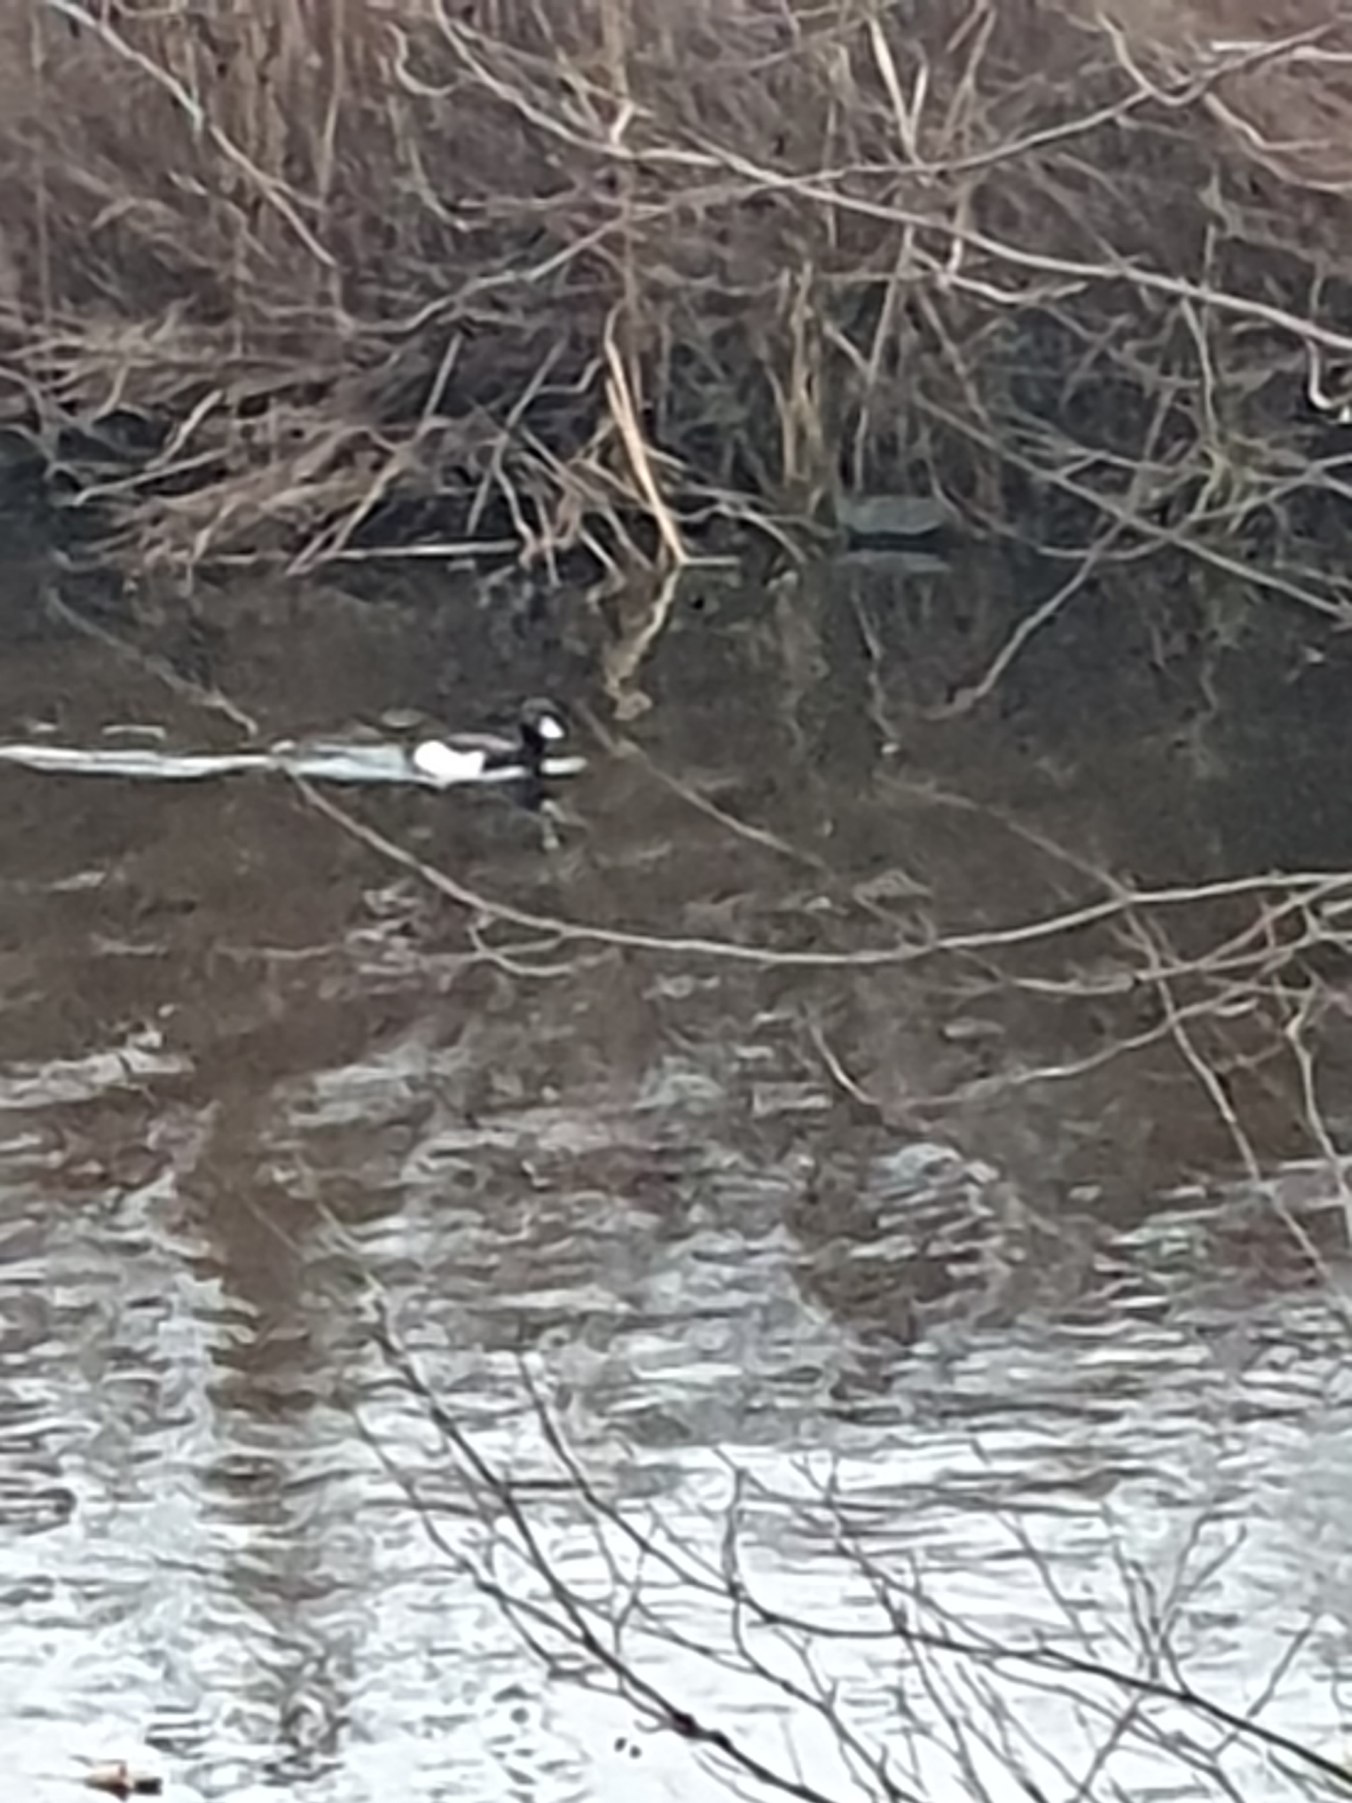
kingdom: Animalia
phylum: Chordata
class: Aves
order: Anseriformes
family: Anatidae
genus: Aythya
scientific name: Aythya fuligula
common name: Troldand
